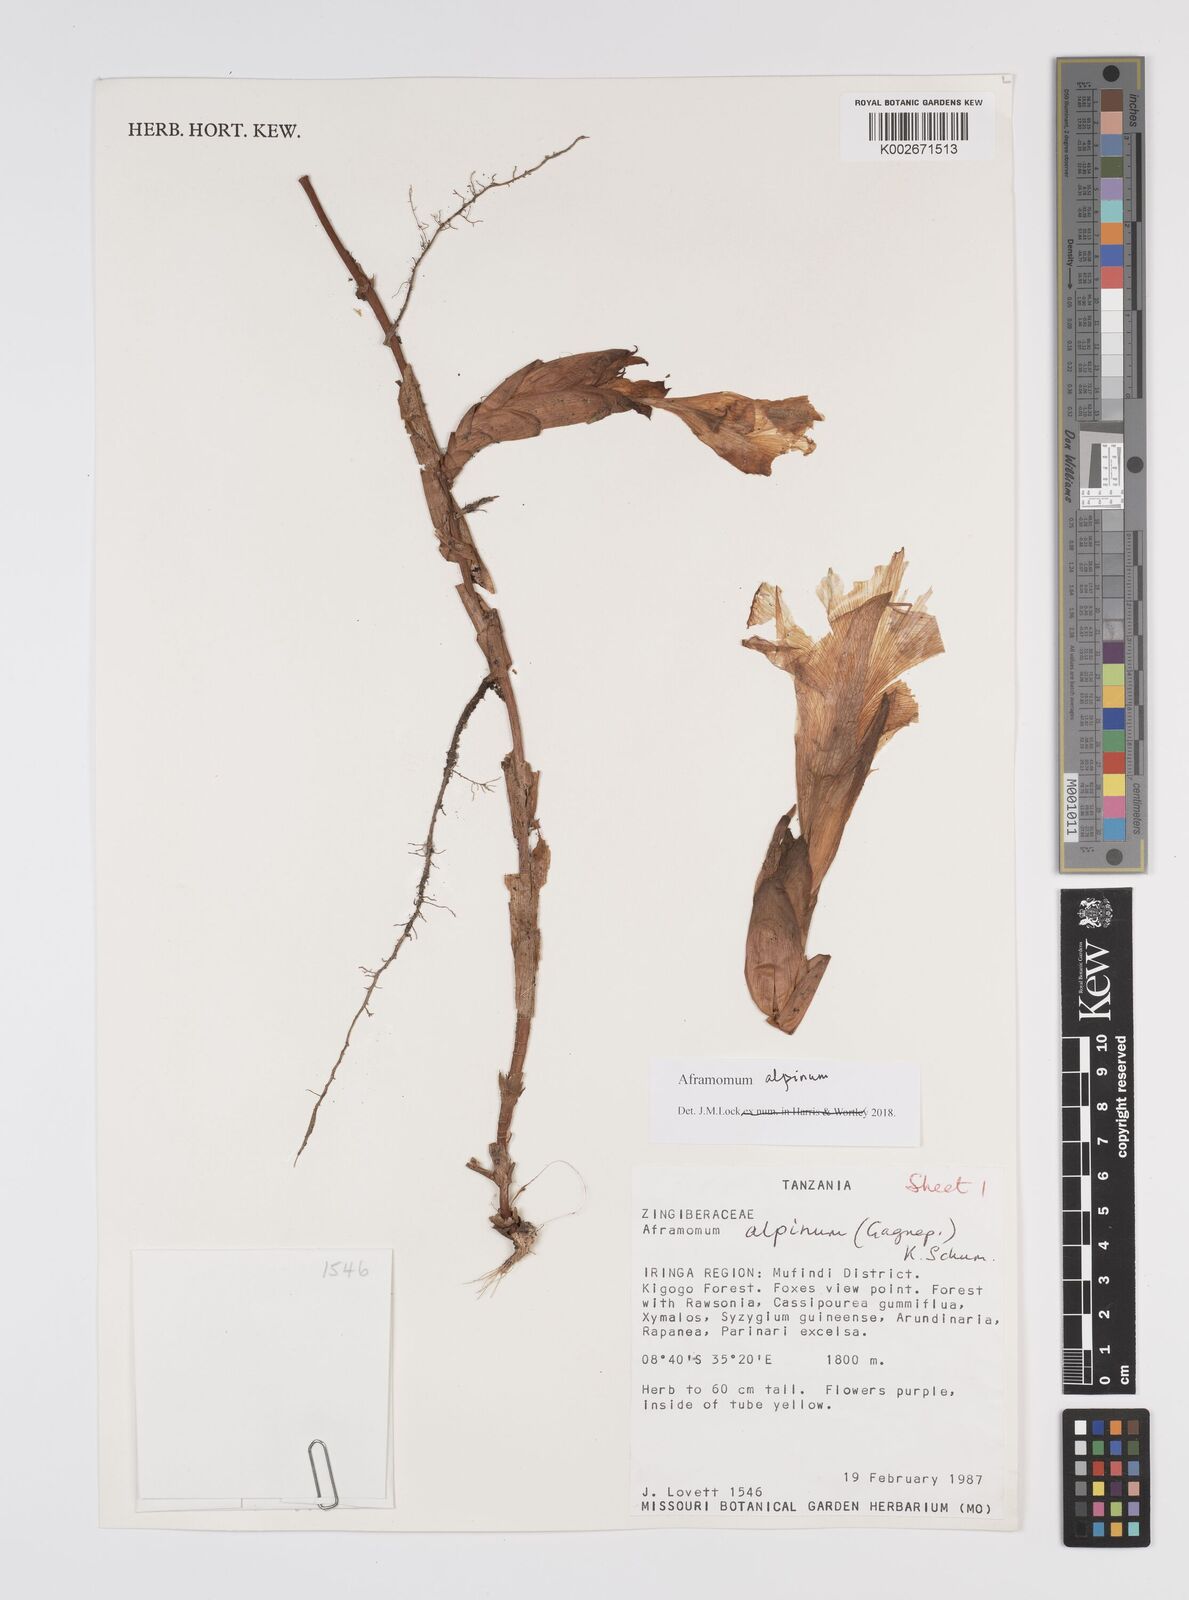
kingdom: Plantae
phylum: Tracheophyta
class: Liliopsida
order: Zingiberales
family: Zingiberaceae
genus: Aframomum
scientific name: Aframomum alpinum
